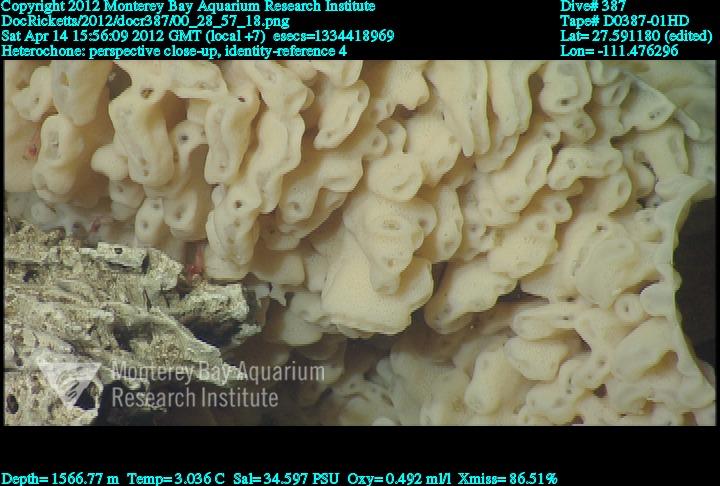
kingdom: Animalia
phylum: Porifera
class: Hexactinellida
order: Sceptrulophora
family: Aphrocallistidae
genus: Heterochone
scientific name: Heterochone
